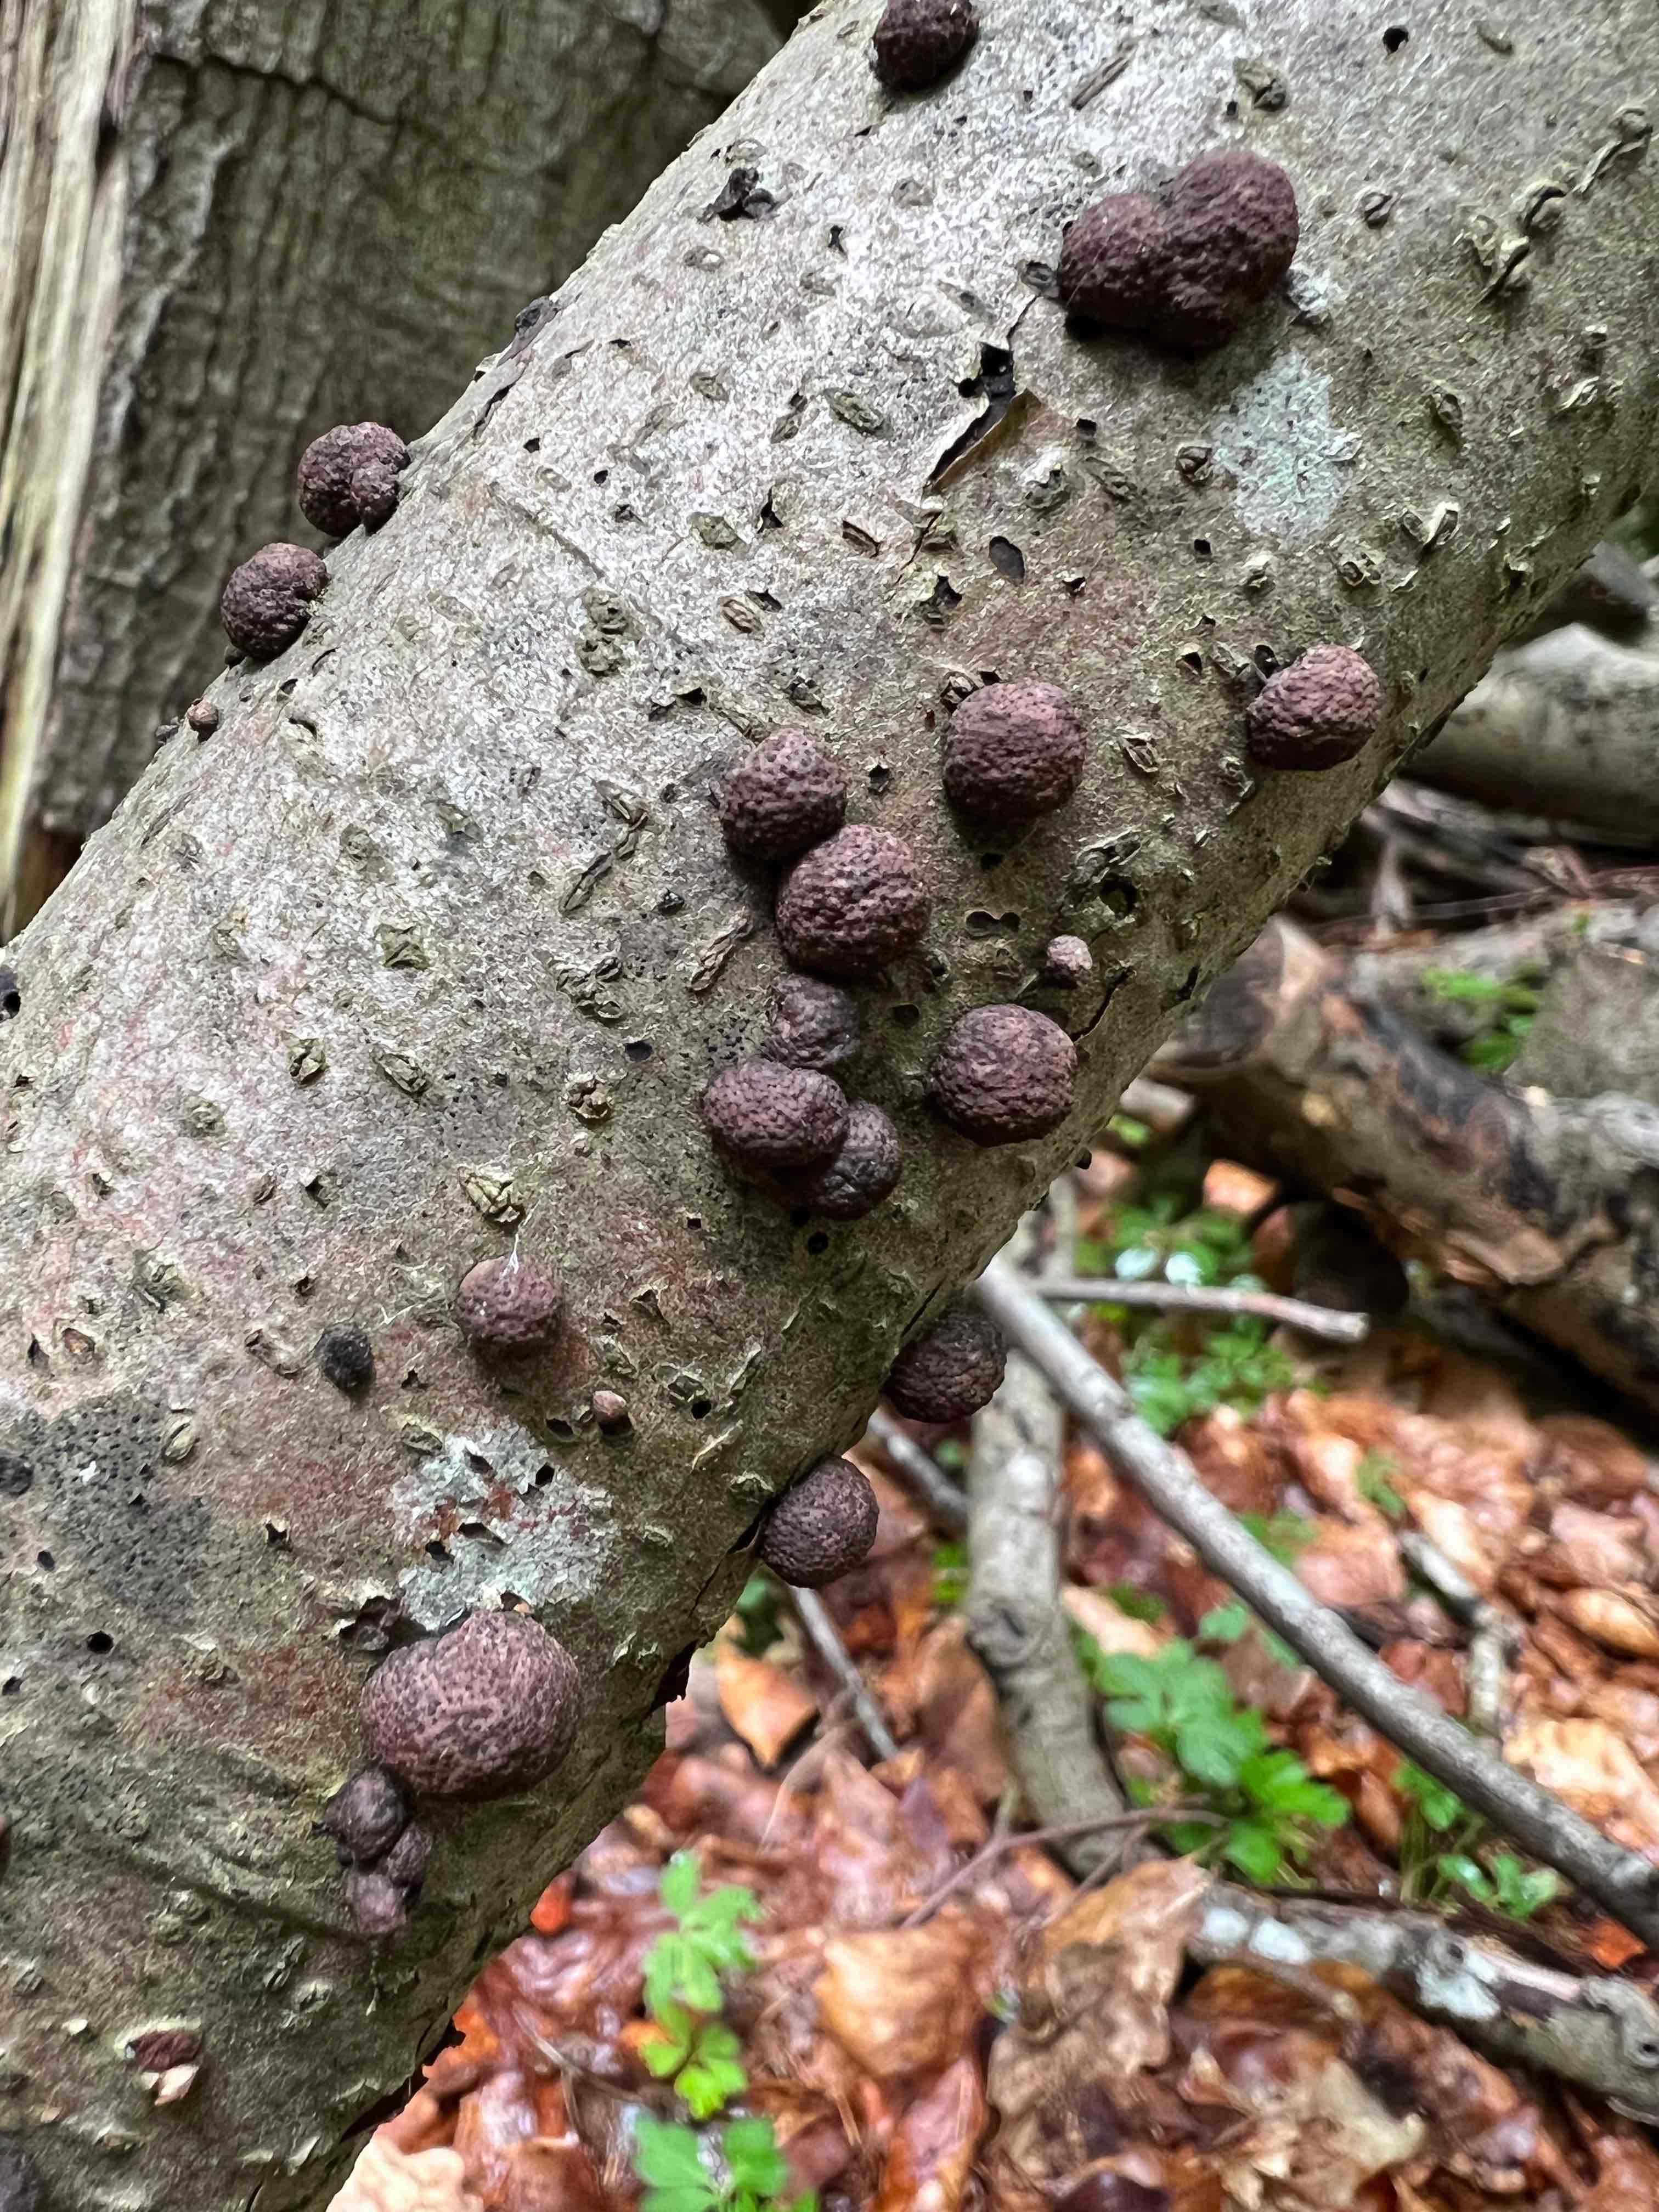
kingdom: Fungi
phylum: Ascomycota
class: Sordariomycetes
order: Xylariales
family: Hypoxylaceae
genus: Hypoxylon
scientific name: Hypoxylon fragiforme
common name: kuljordbær
